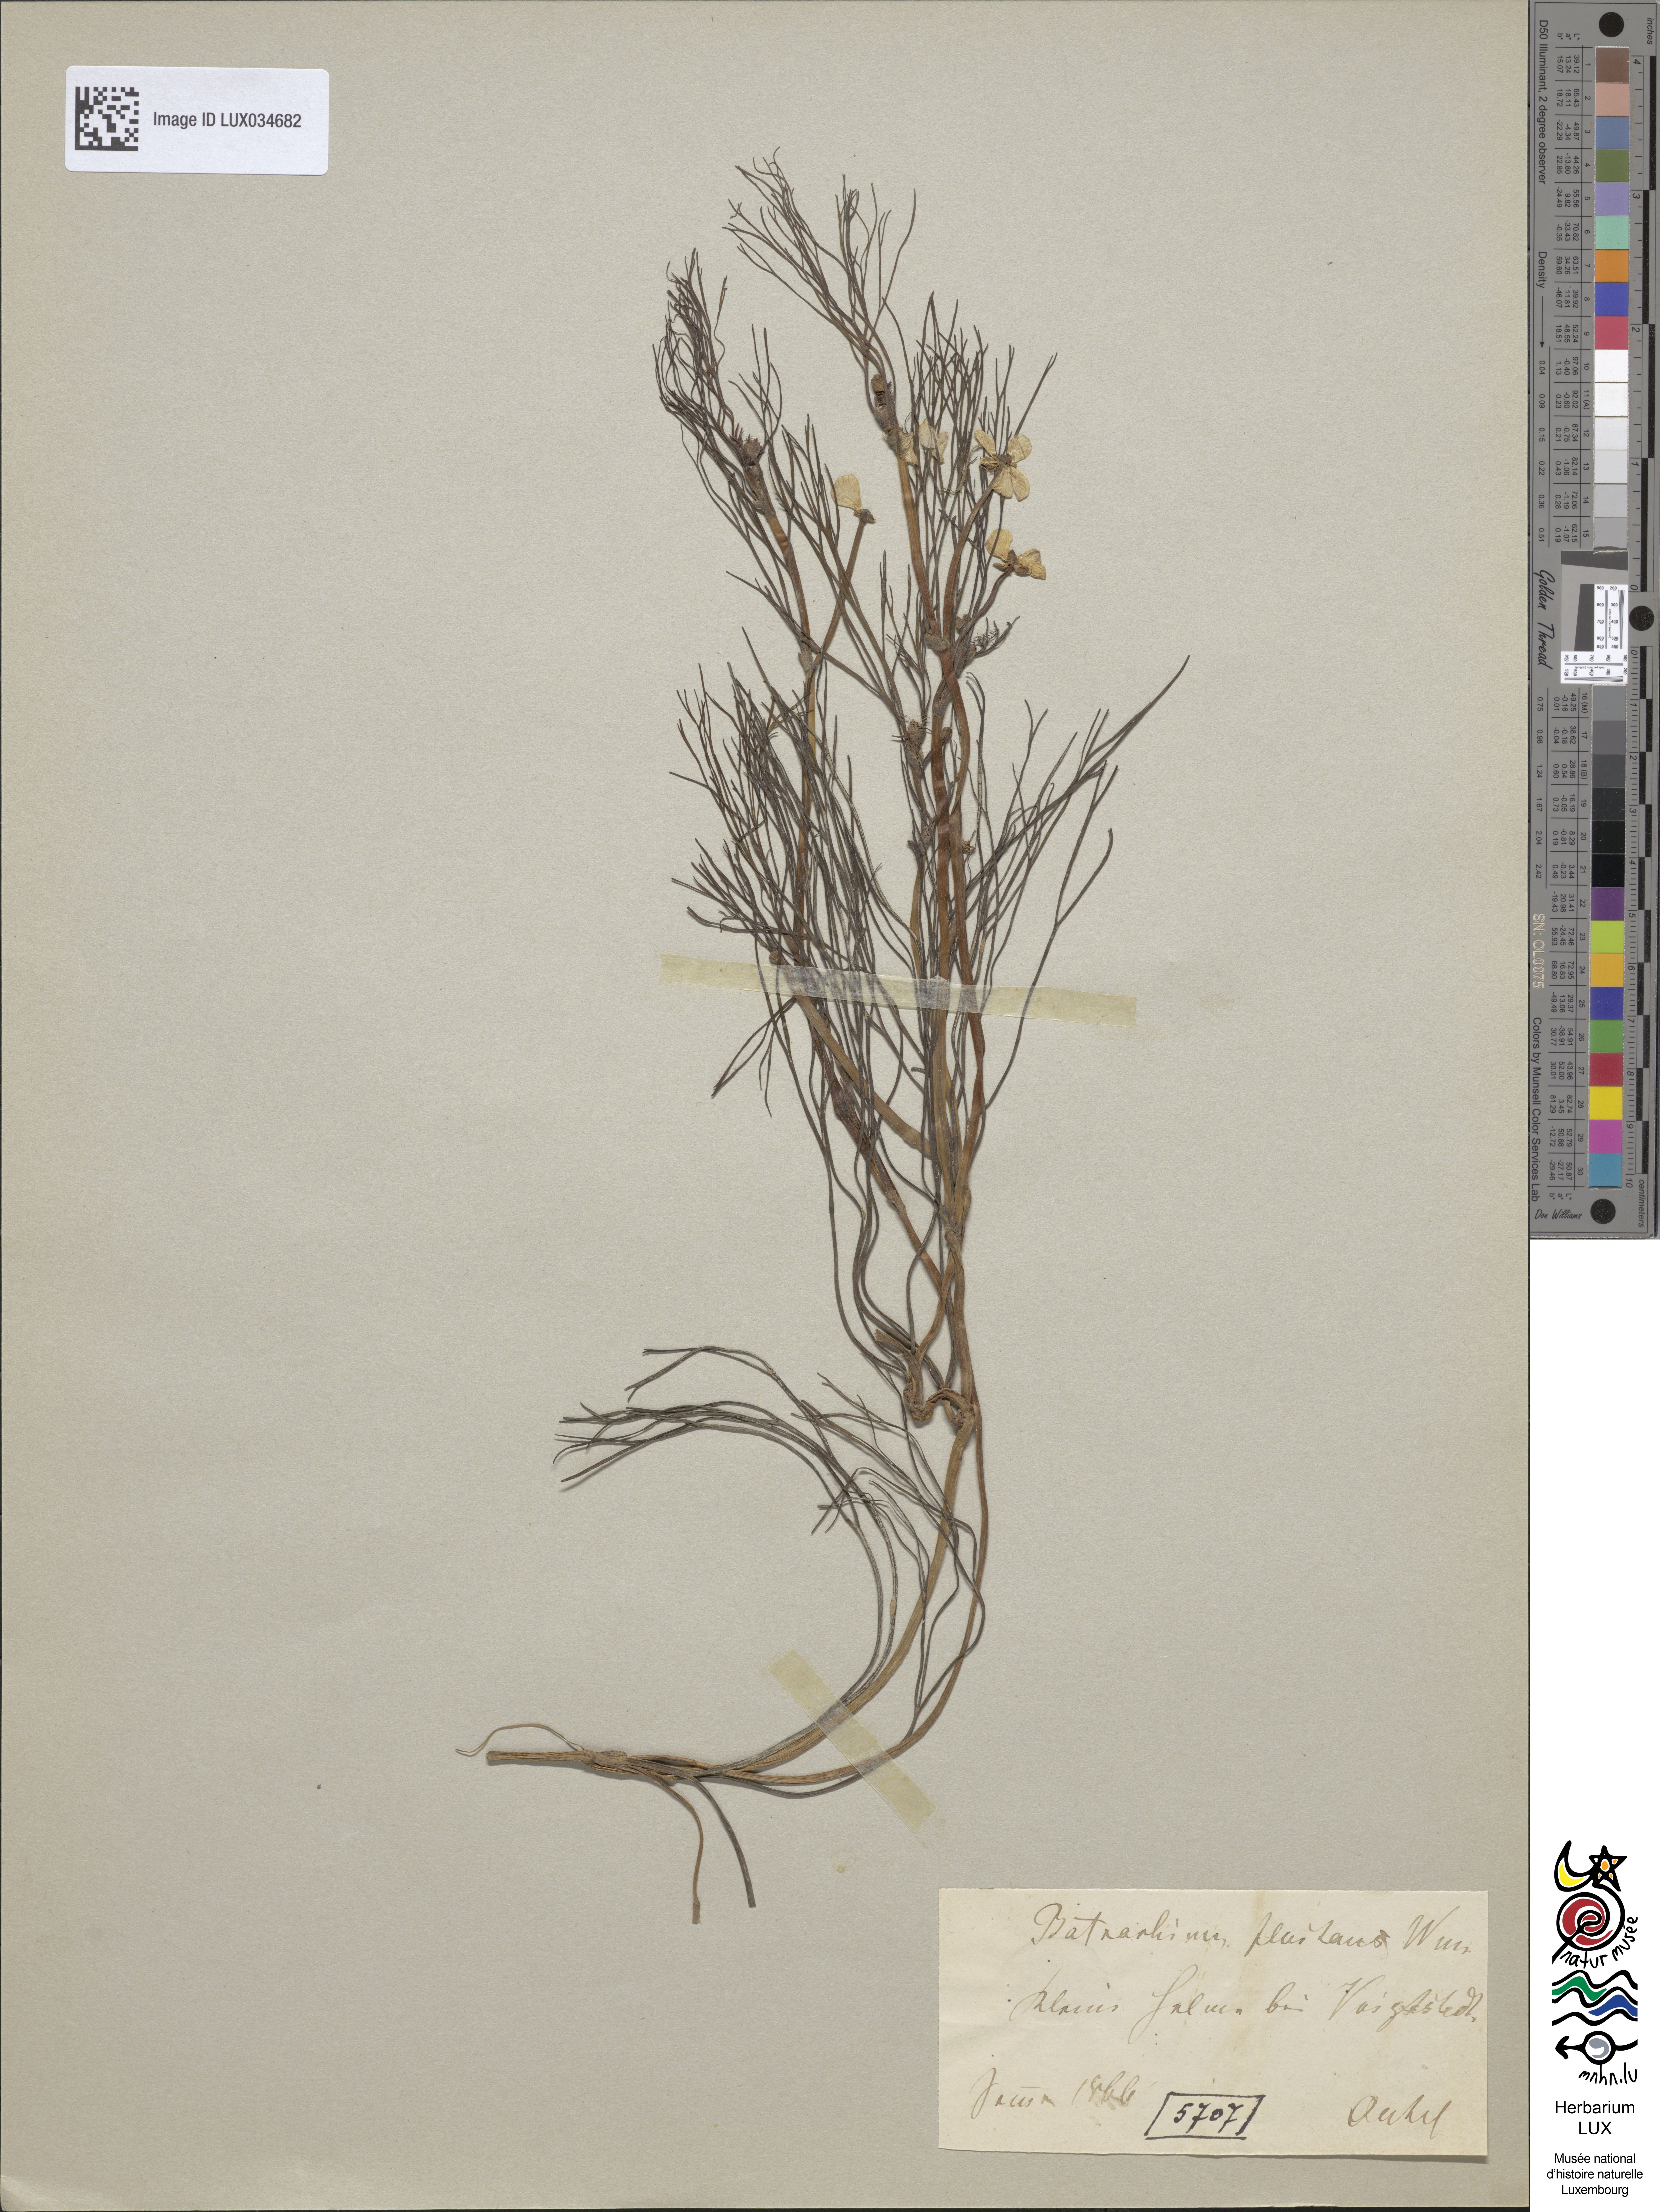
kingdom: Plantae
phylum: Tracheophyta
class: Magnoliopsida
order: Ranunculales
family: Ranunculaceae
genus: Ranunculus
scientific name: Ranunculus fluitans
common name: River water-crowfoot
